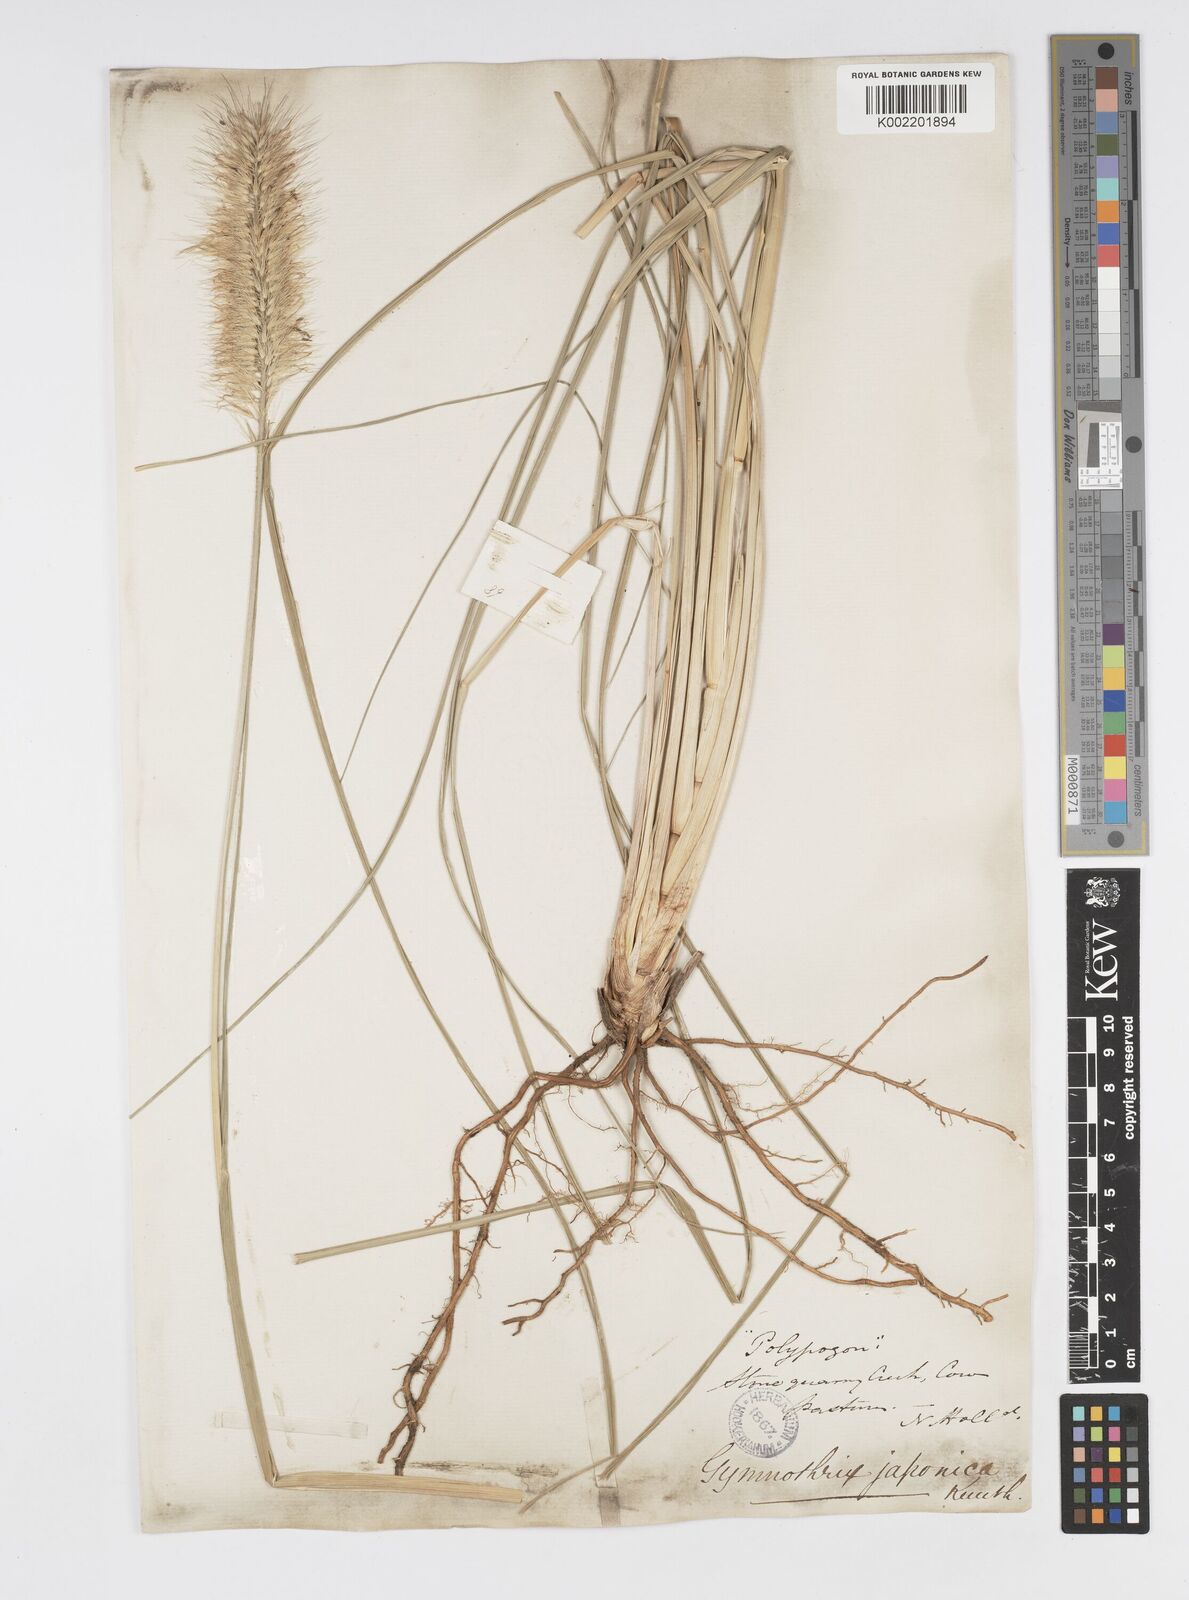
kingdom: Plantae
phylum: Tracheophyta
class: Liliopsida
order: Poales
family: Poaceae
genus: Cenchrus
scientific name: Cenchrus alopecuroides
